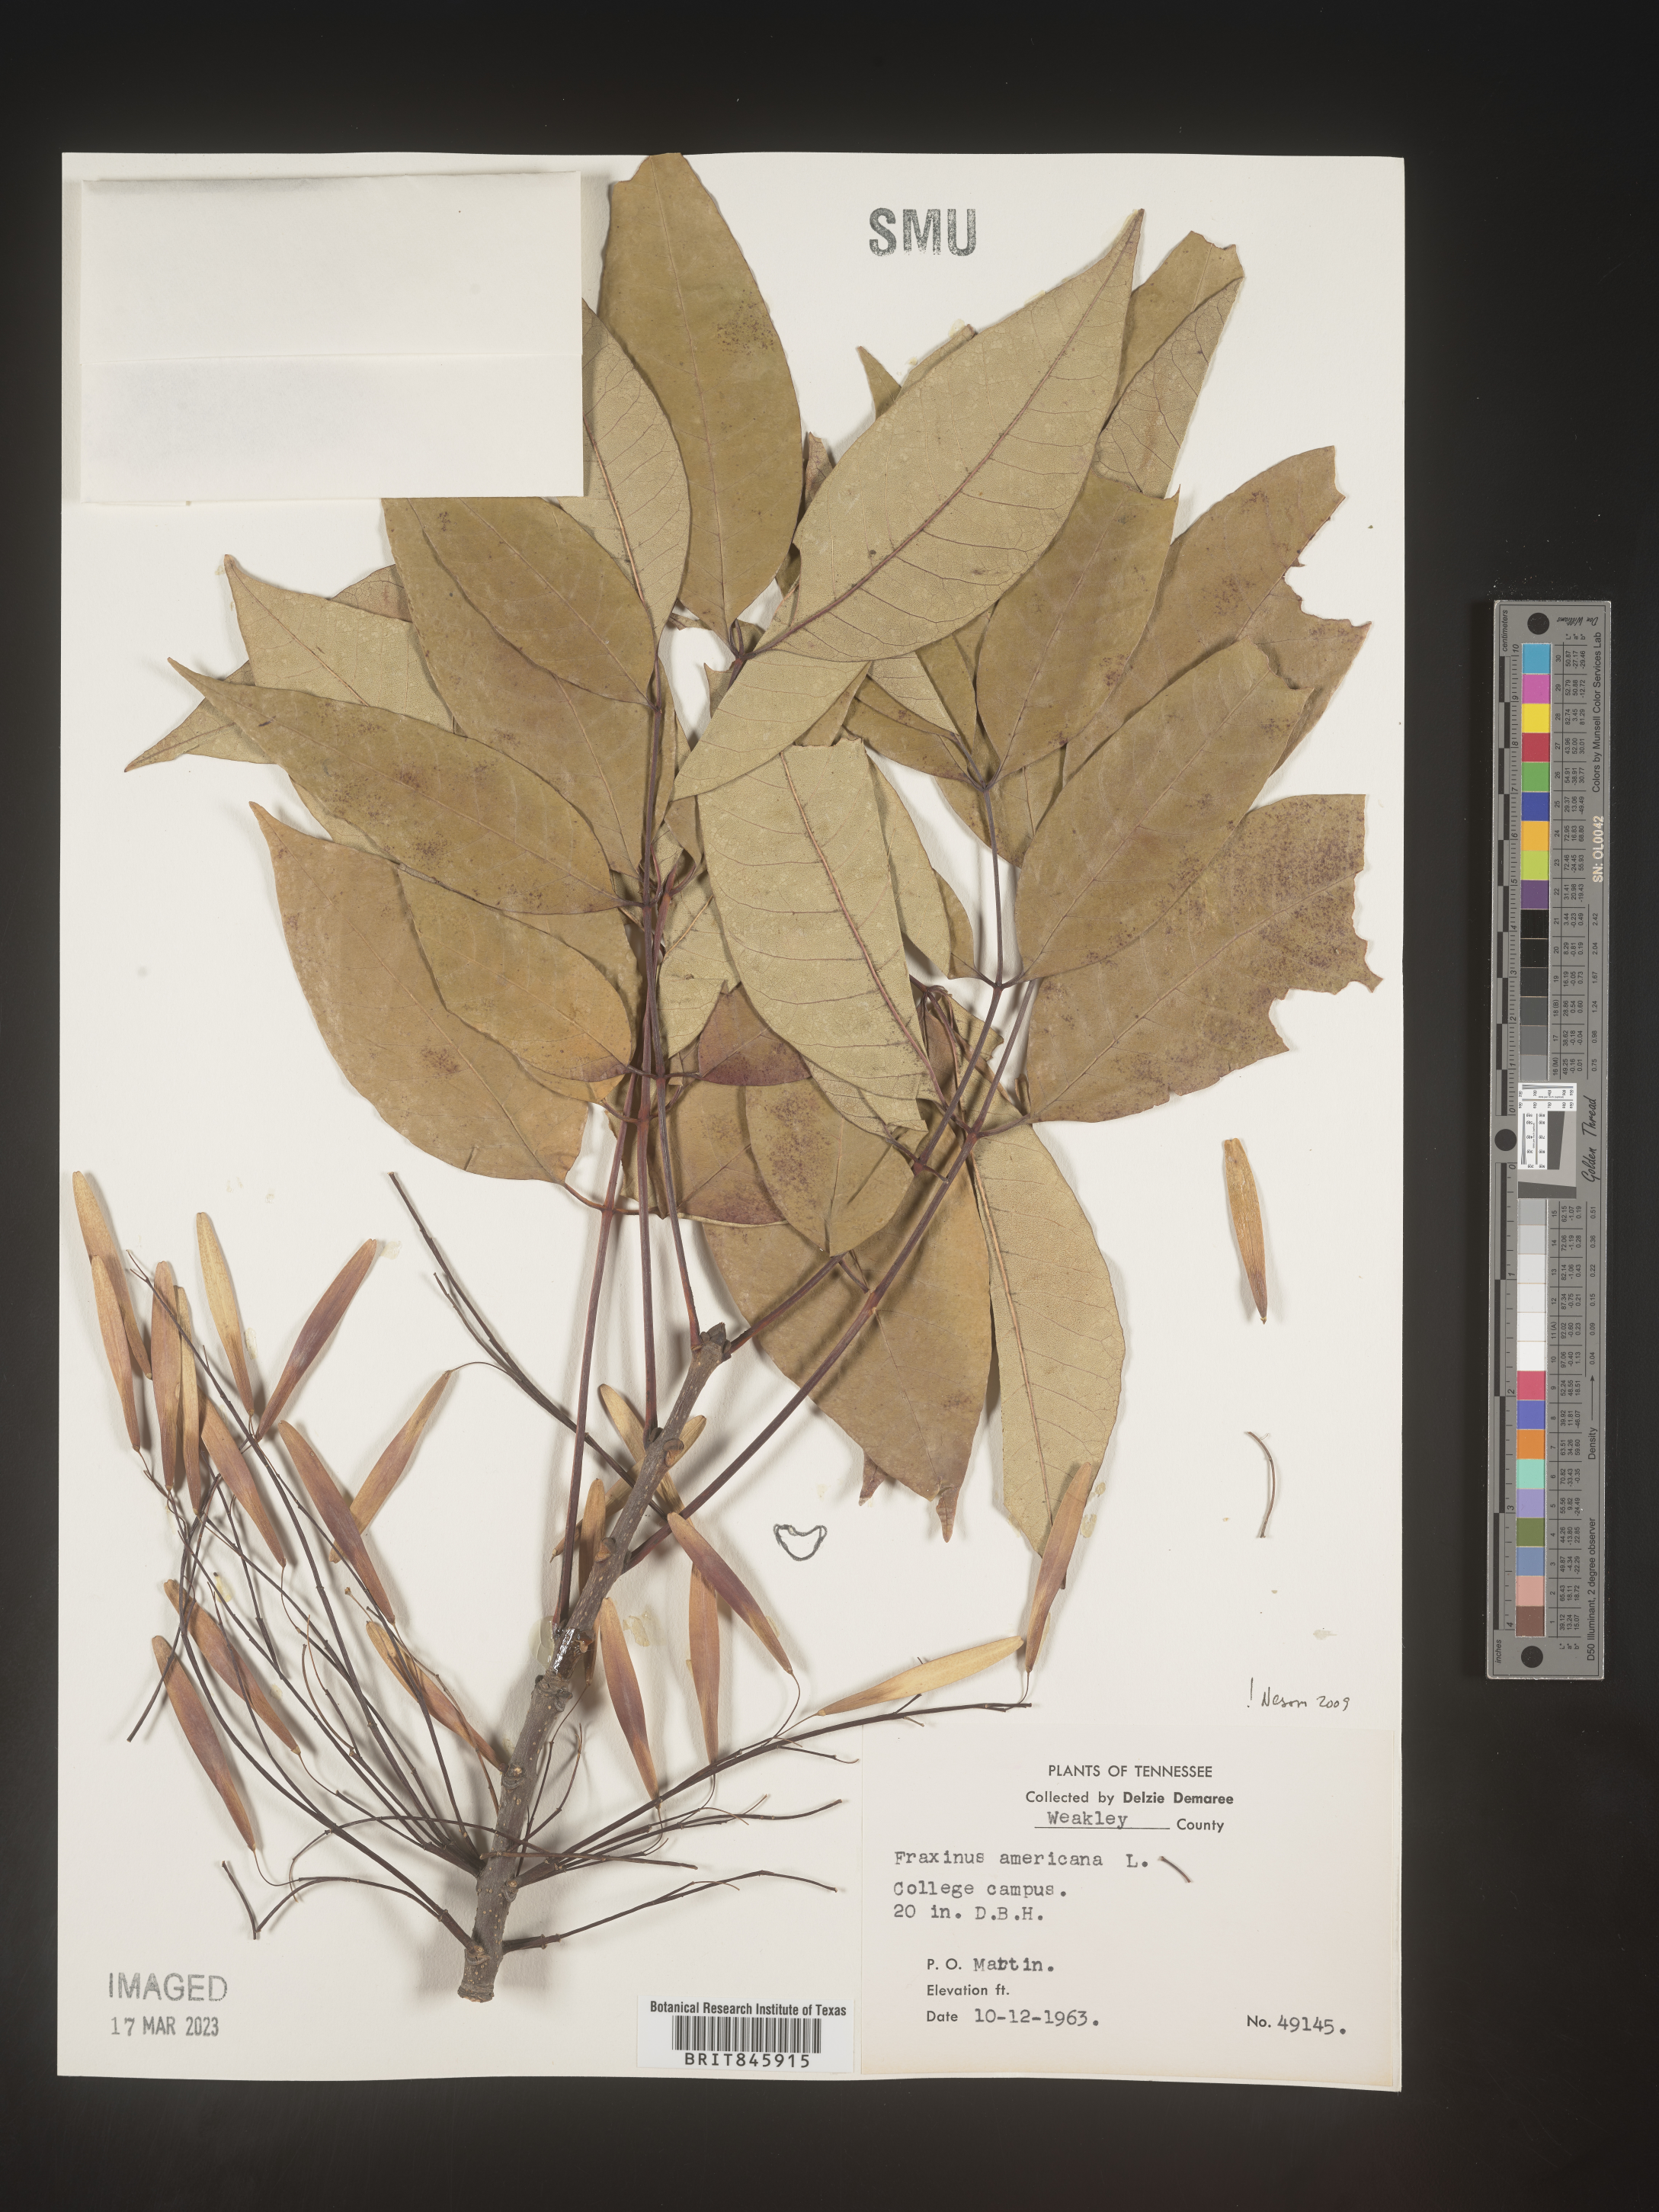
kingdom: Plantae
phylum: Tracheophyta
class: Magnoliopsida
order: Lamiales
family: Oleaceae
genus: Fraxinus
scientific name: Fraxinus americana
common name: White ash
